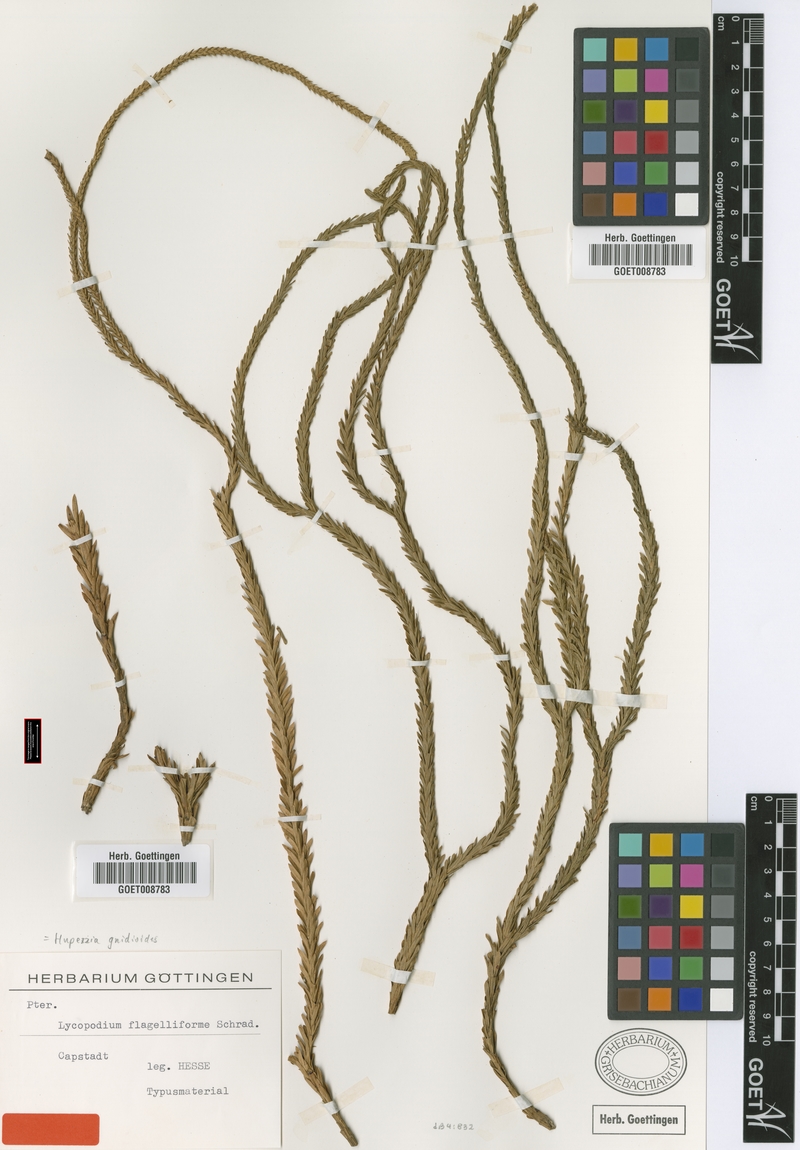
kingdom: Plantae
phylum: Tracheophyta
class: Lycopodiopsida
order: Lycopodiales
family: Lycopodiaceae
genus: Phlegmariurus
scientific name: Phlegmariurus gnidioides
